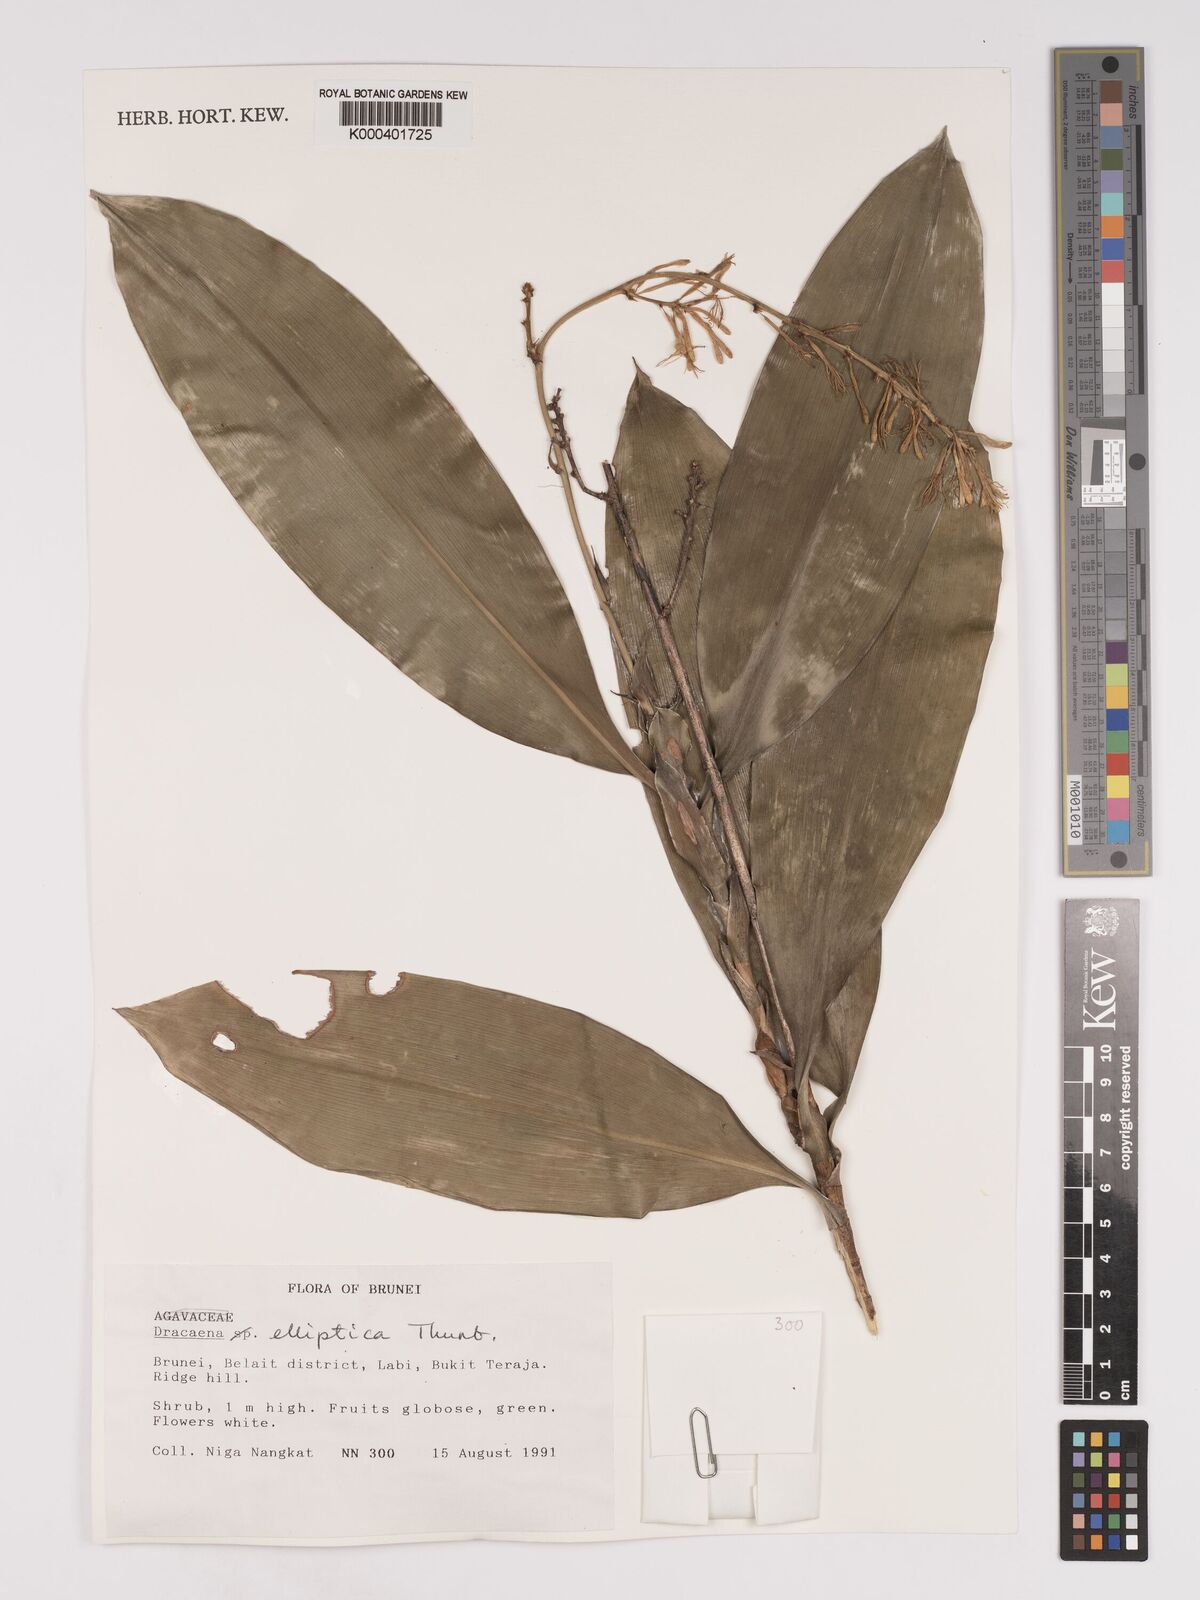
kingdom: Plantae
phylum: Tracheophyta
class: Liliopsida
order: Asparagales
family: Asparagaceae
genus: Dracaena
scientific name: Dracaena elliptica
